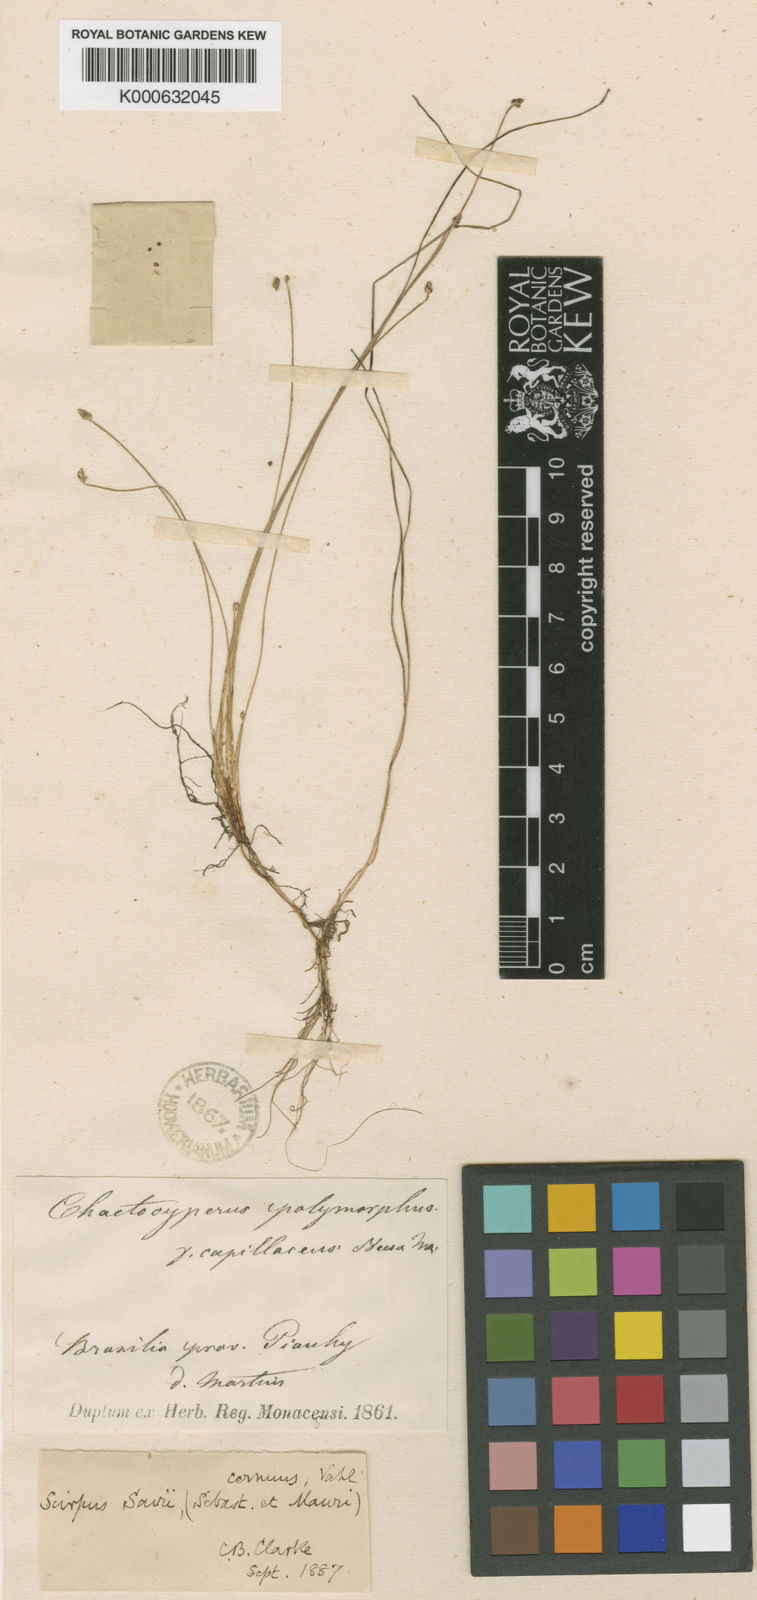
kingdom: Plantae
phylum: Tracheophyta
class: Liliopsida
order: Poales
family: Cyperaceae
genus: Isolepis
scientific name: Isolepis cernua
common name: Slender club-rush
